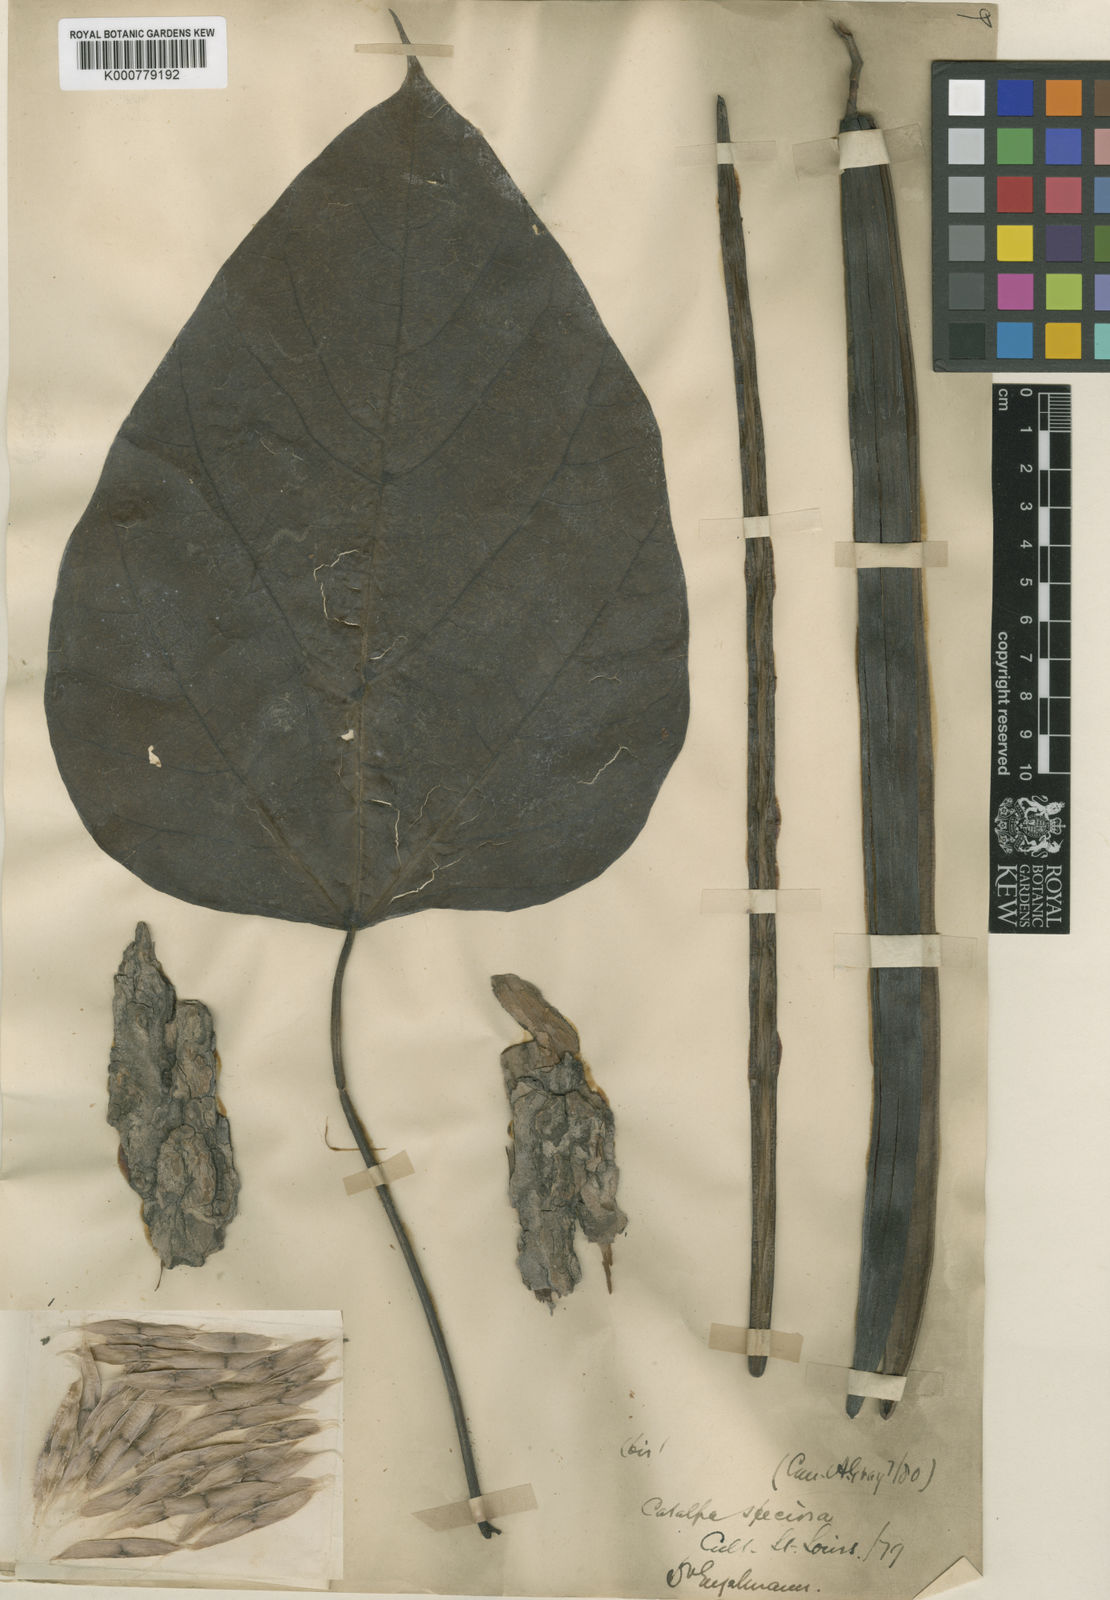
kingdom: Plantae
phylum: Tracheophyta
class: Magnoliopsida
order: Lamiales
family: Bignoniaceae
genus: Catalpa
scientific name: Catalpa
